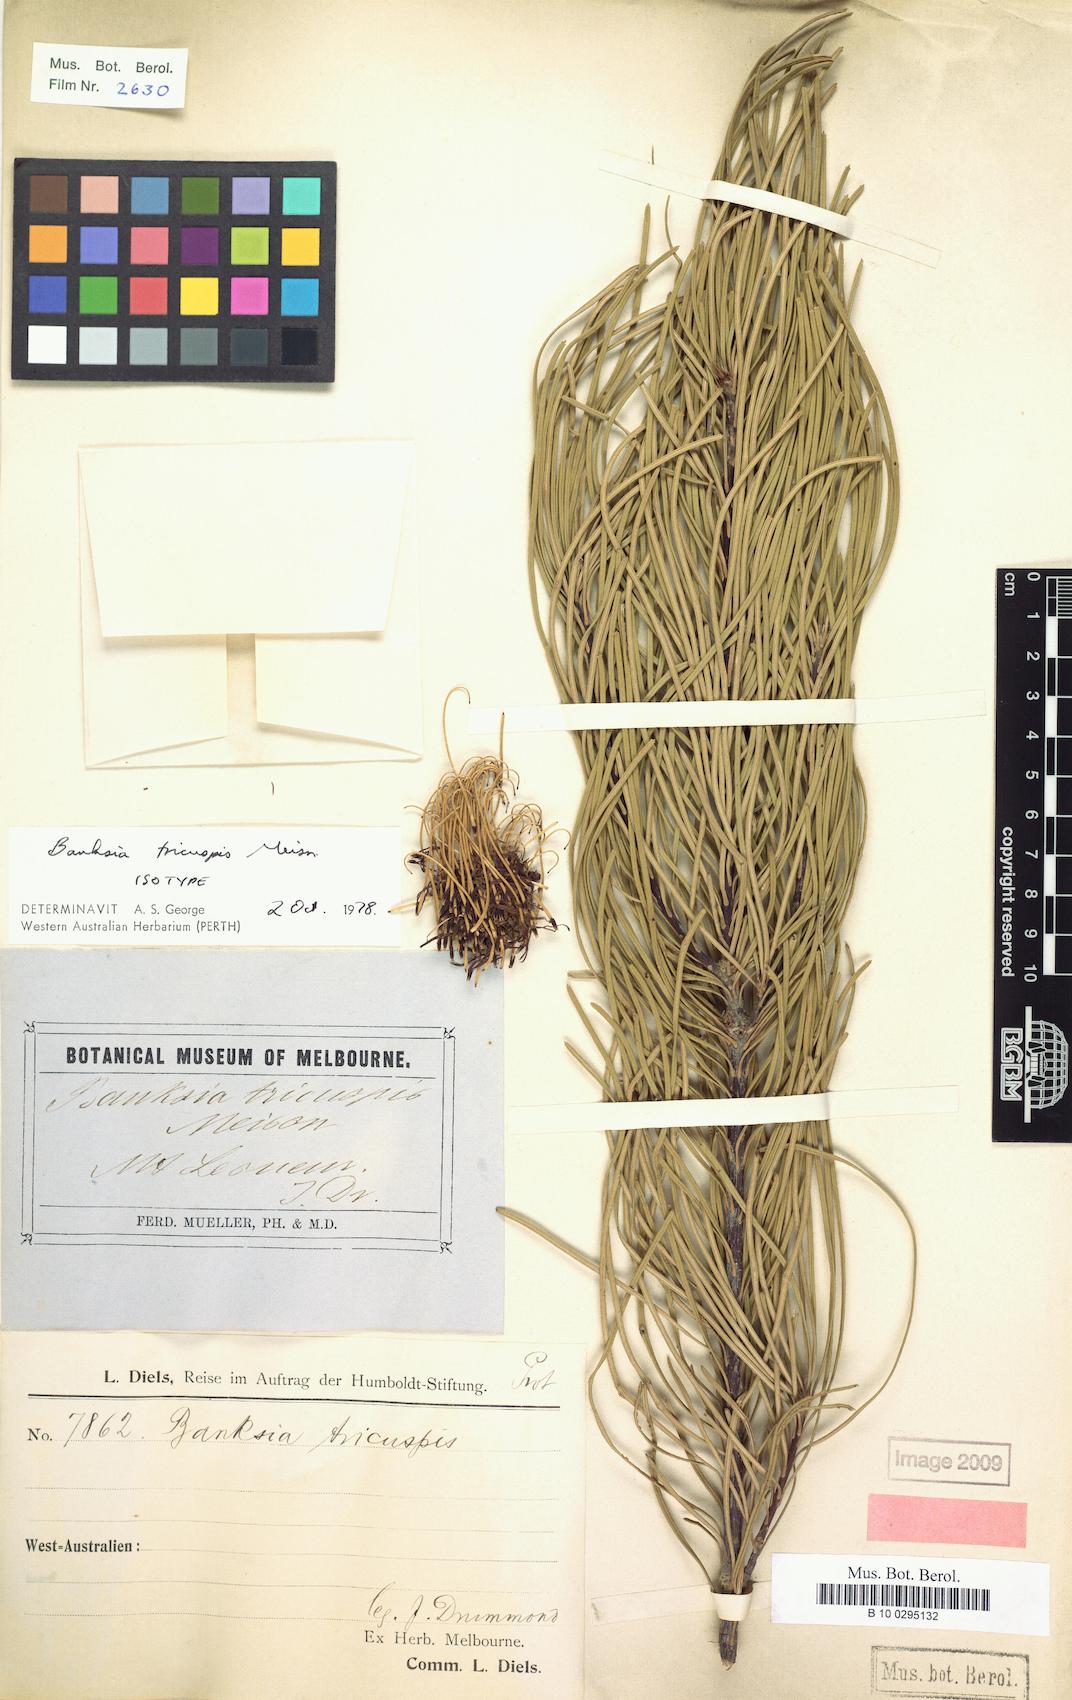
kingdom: Plantae
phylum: Tracheophyta
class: Magnoliopsida
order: Proteales
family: Proteaceae
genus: Banksia
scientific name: Banksia tricuspis
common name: Lesueur banksia
